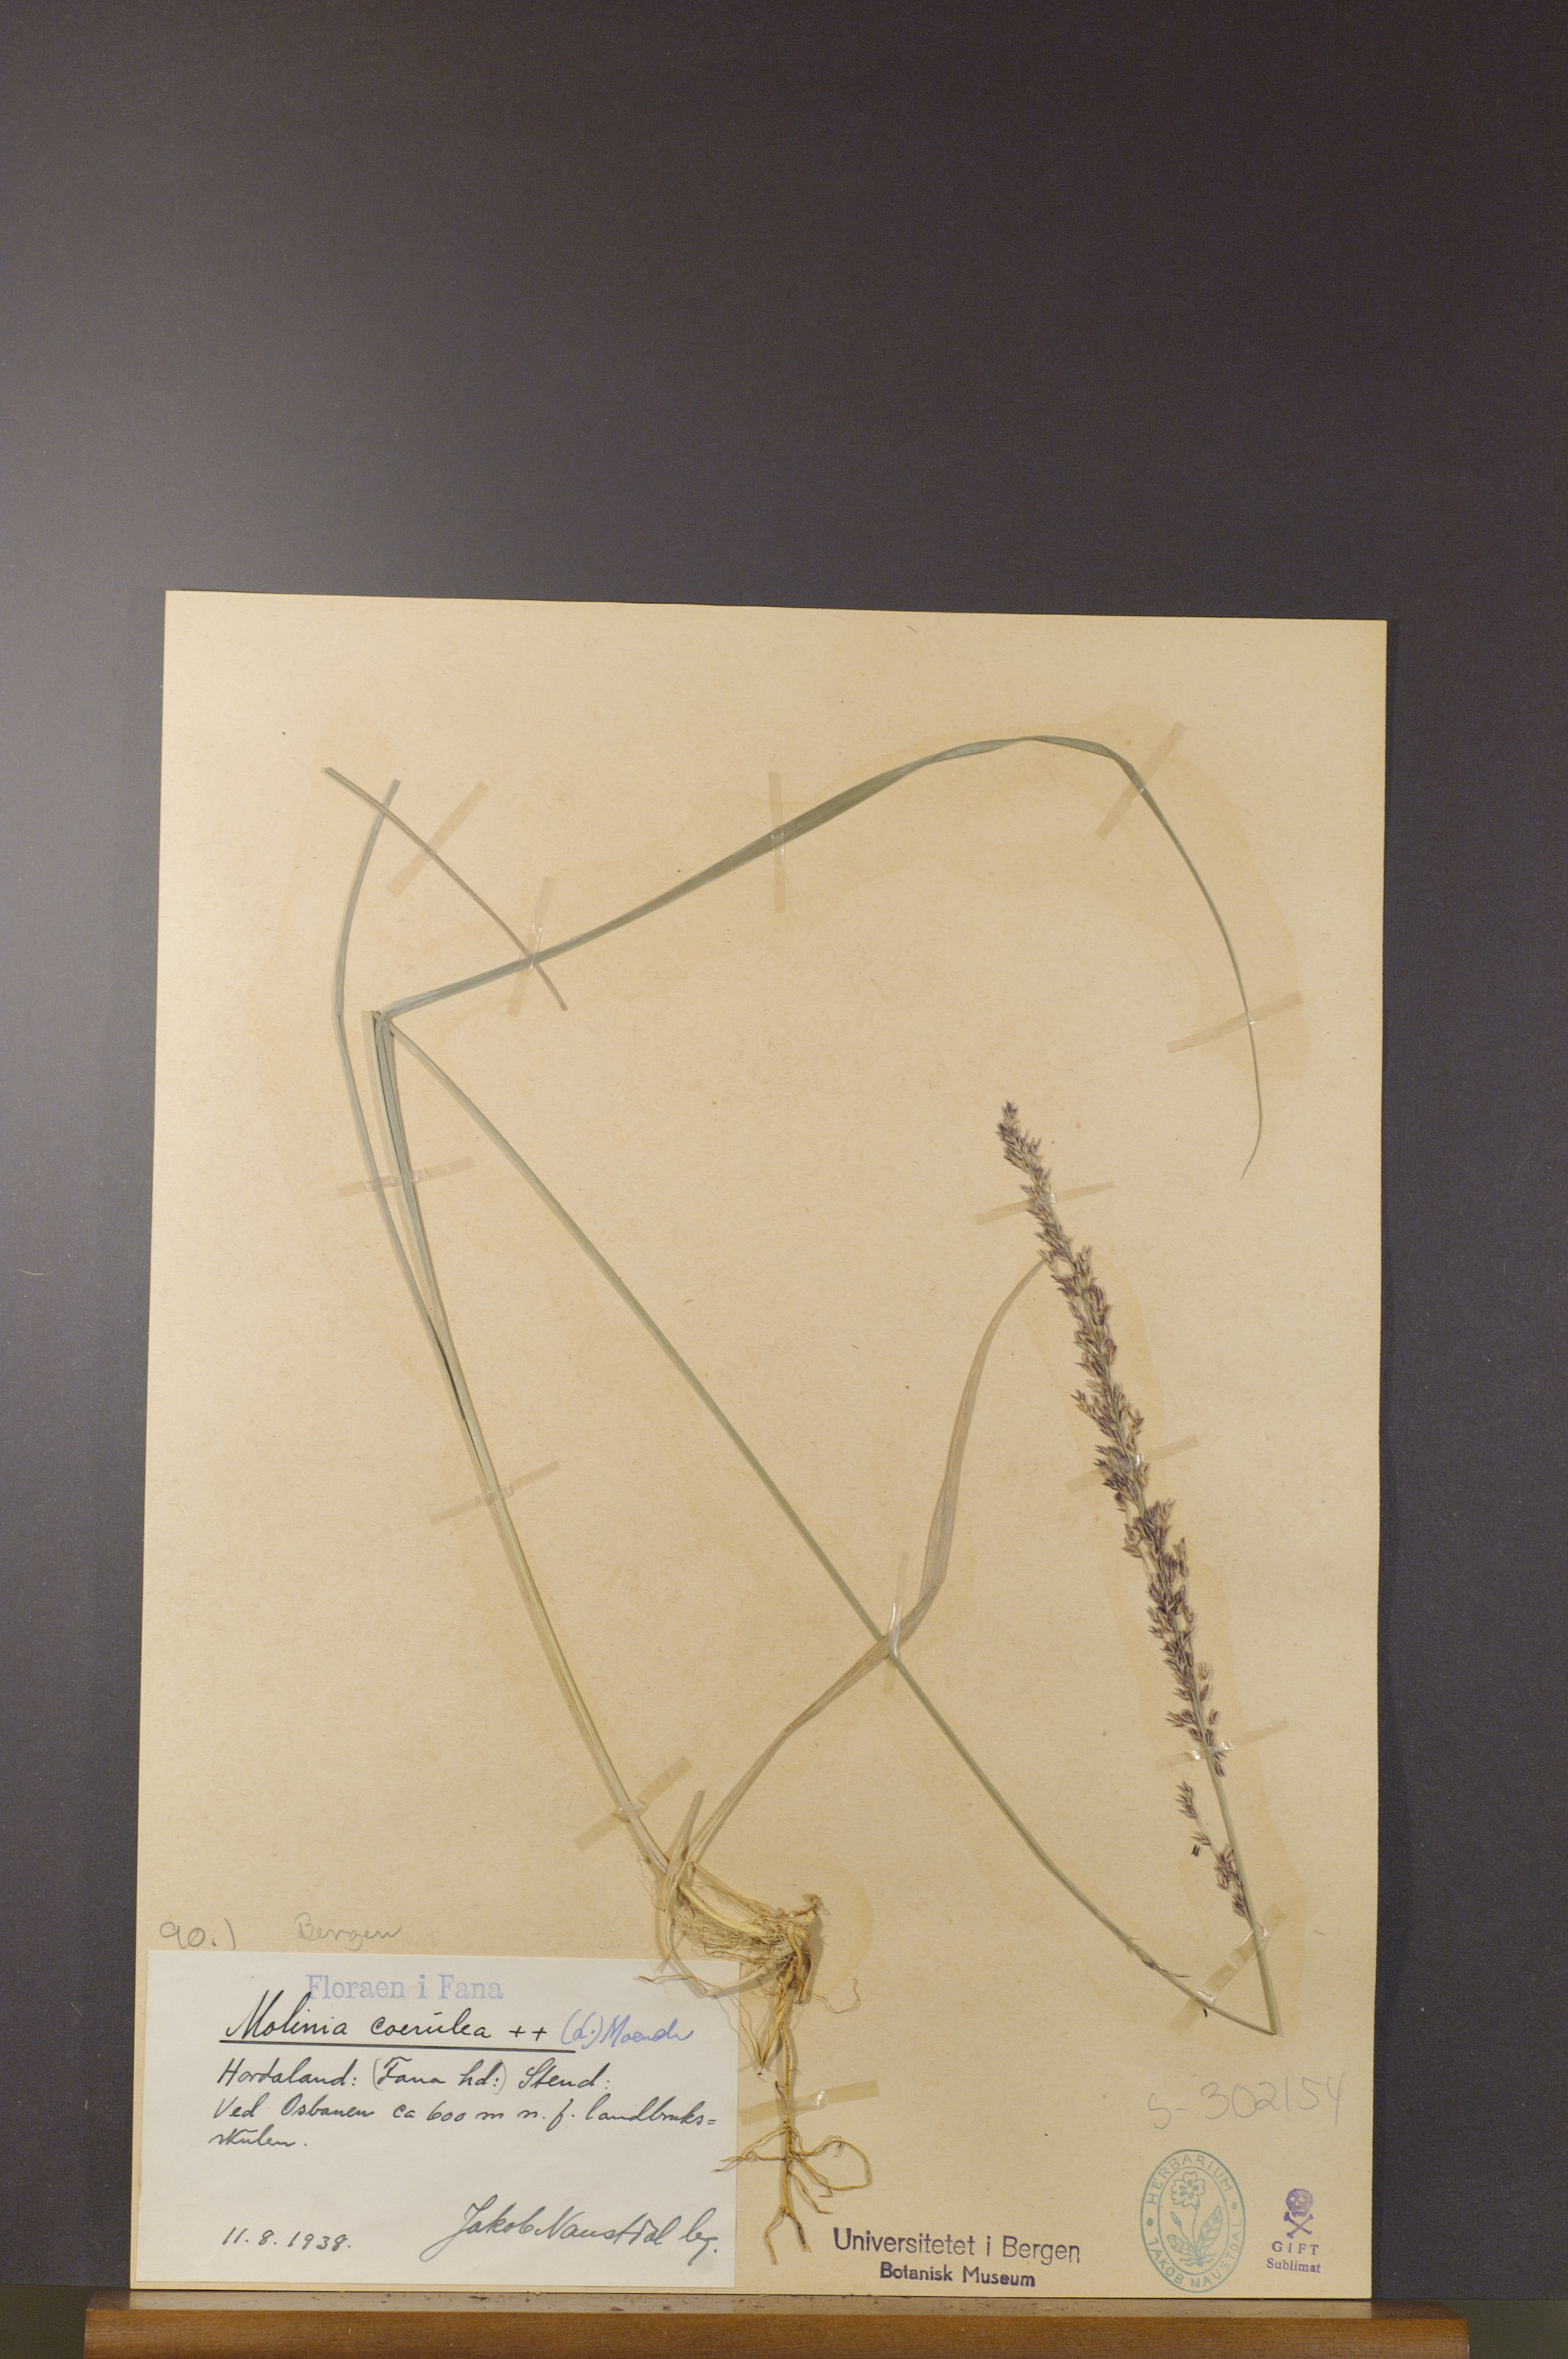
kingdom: Plantae
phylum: Tracheophyta
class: Liliopsida
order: Poales
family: Poaceae
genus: Molinia
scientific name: Molinia caerulea
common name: Purple moor-grass
